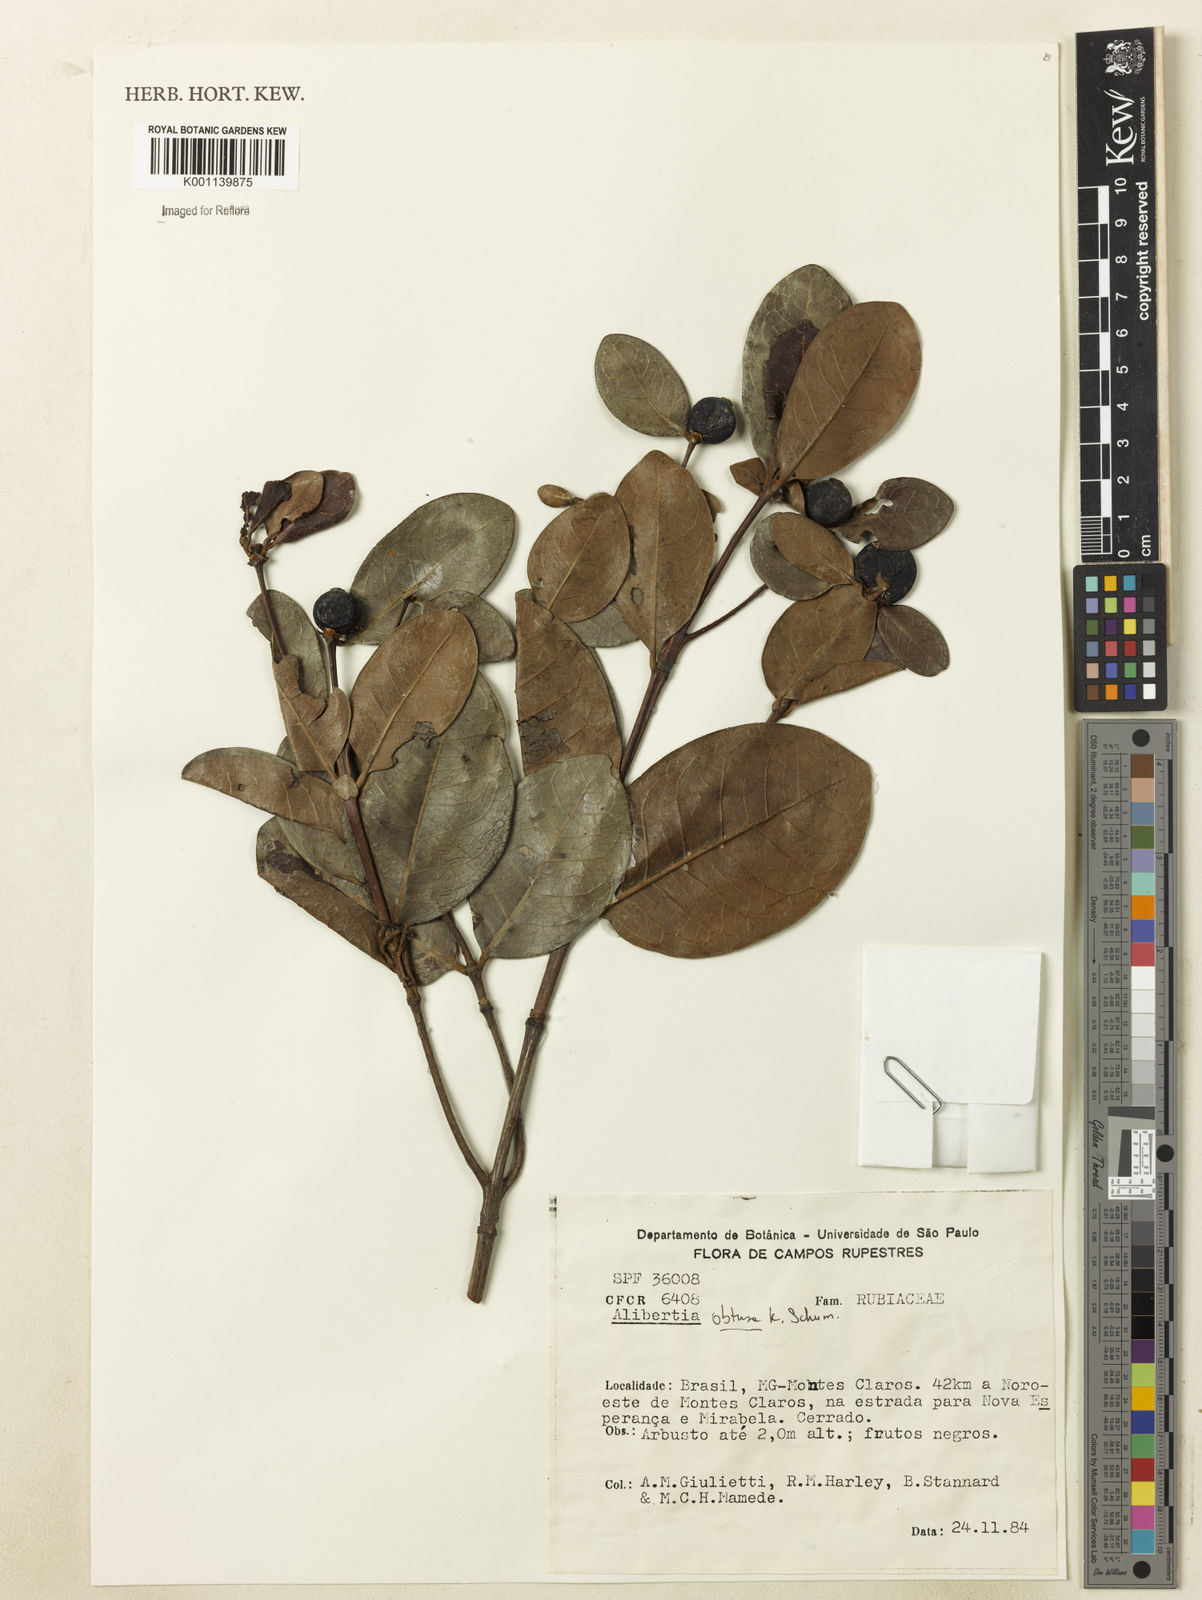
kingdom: Plantae
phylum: Tracheophyta
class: Magnoliopsida
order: Gentianales
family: Rubiaceae
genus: Cordiera
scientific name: Cordiera obtusa
